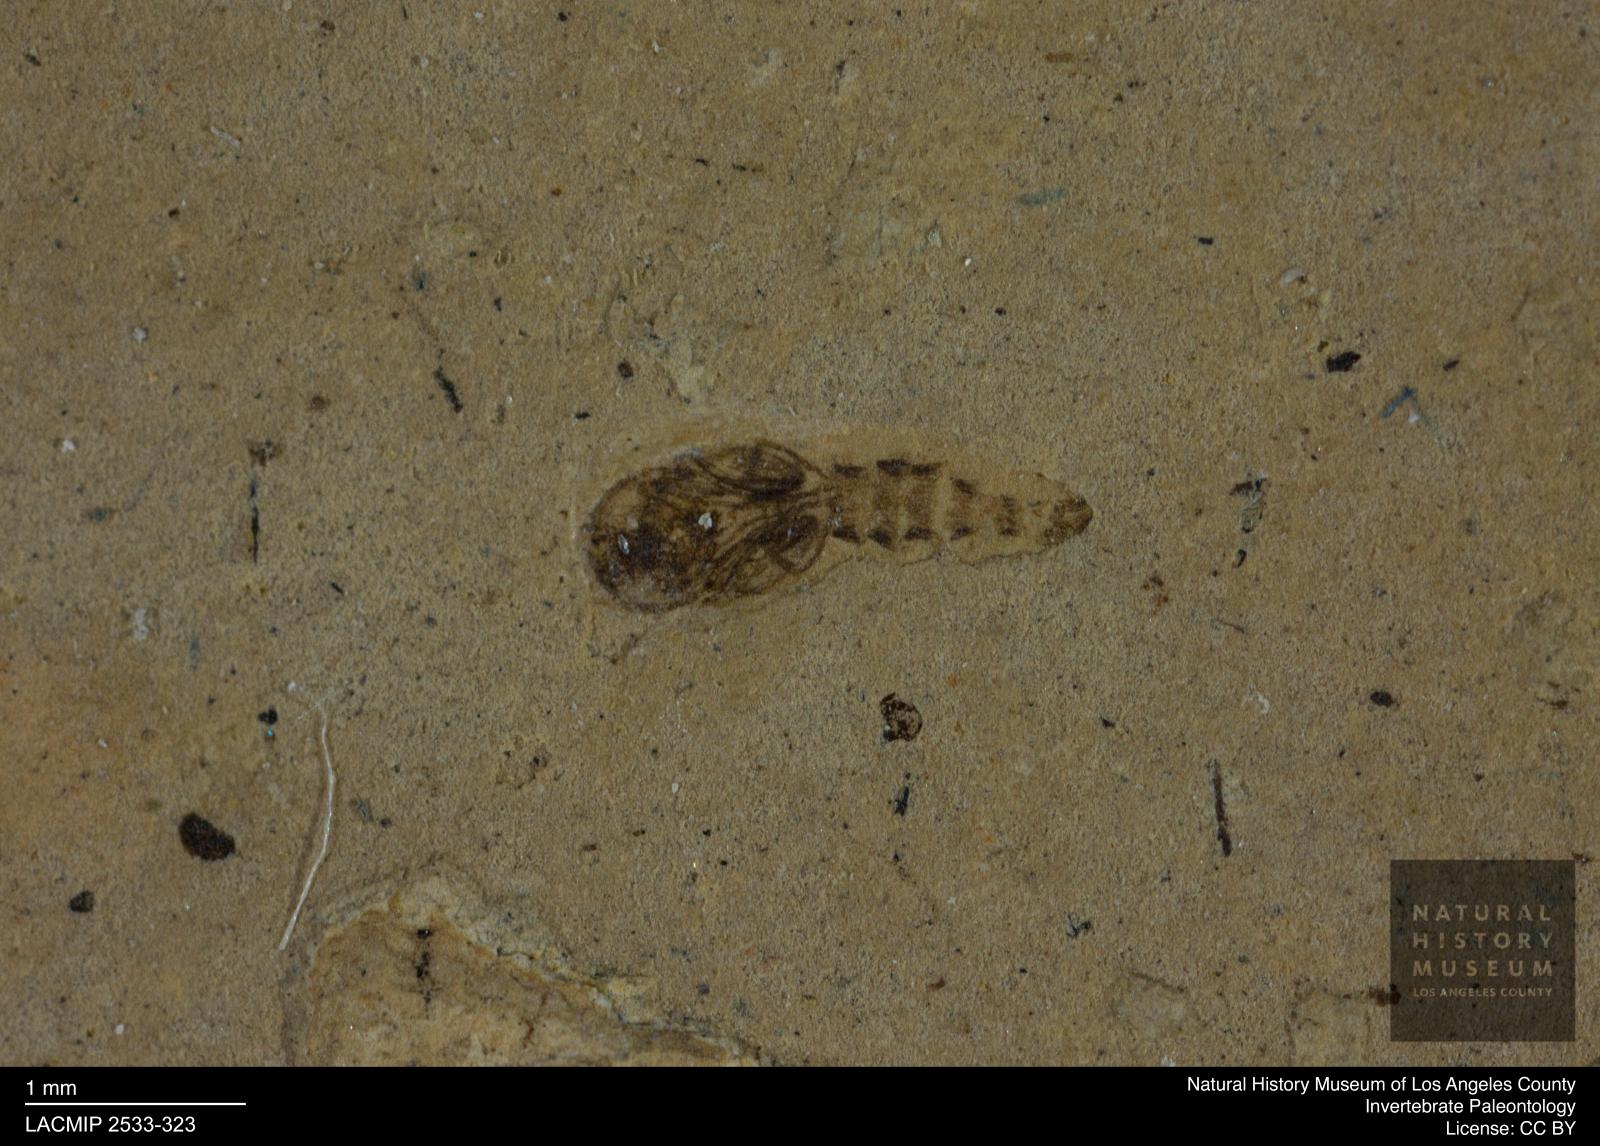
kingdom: Animalia
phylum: Arthropoda
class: Insecta
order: Diptera
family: Ceratopogonidae
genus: Ceratopogon
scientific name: Ceratopogon
